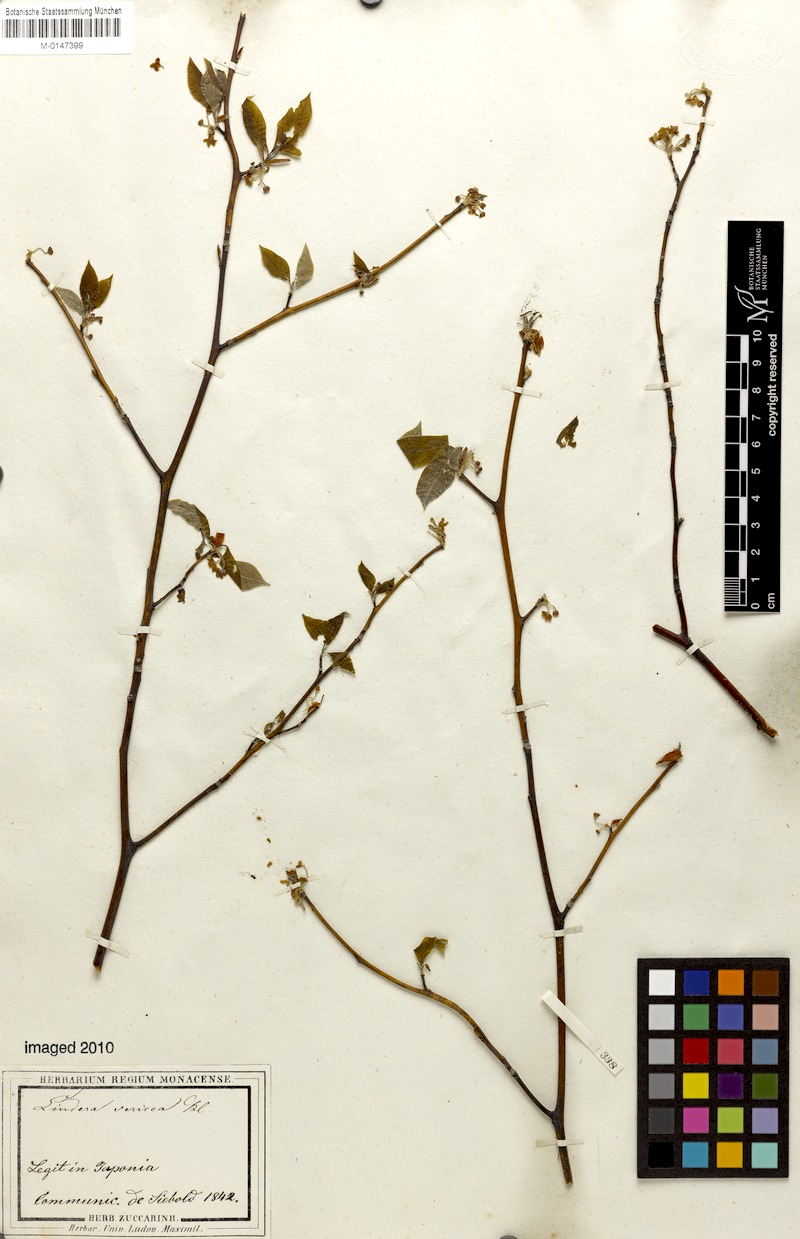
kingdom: Plantae
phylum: Tracheophyta
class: Magnoliopsida
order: Laurales
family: Lauraceae
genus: Lindera
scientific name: Lindera sericea
